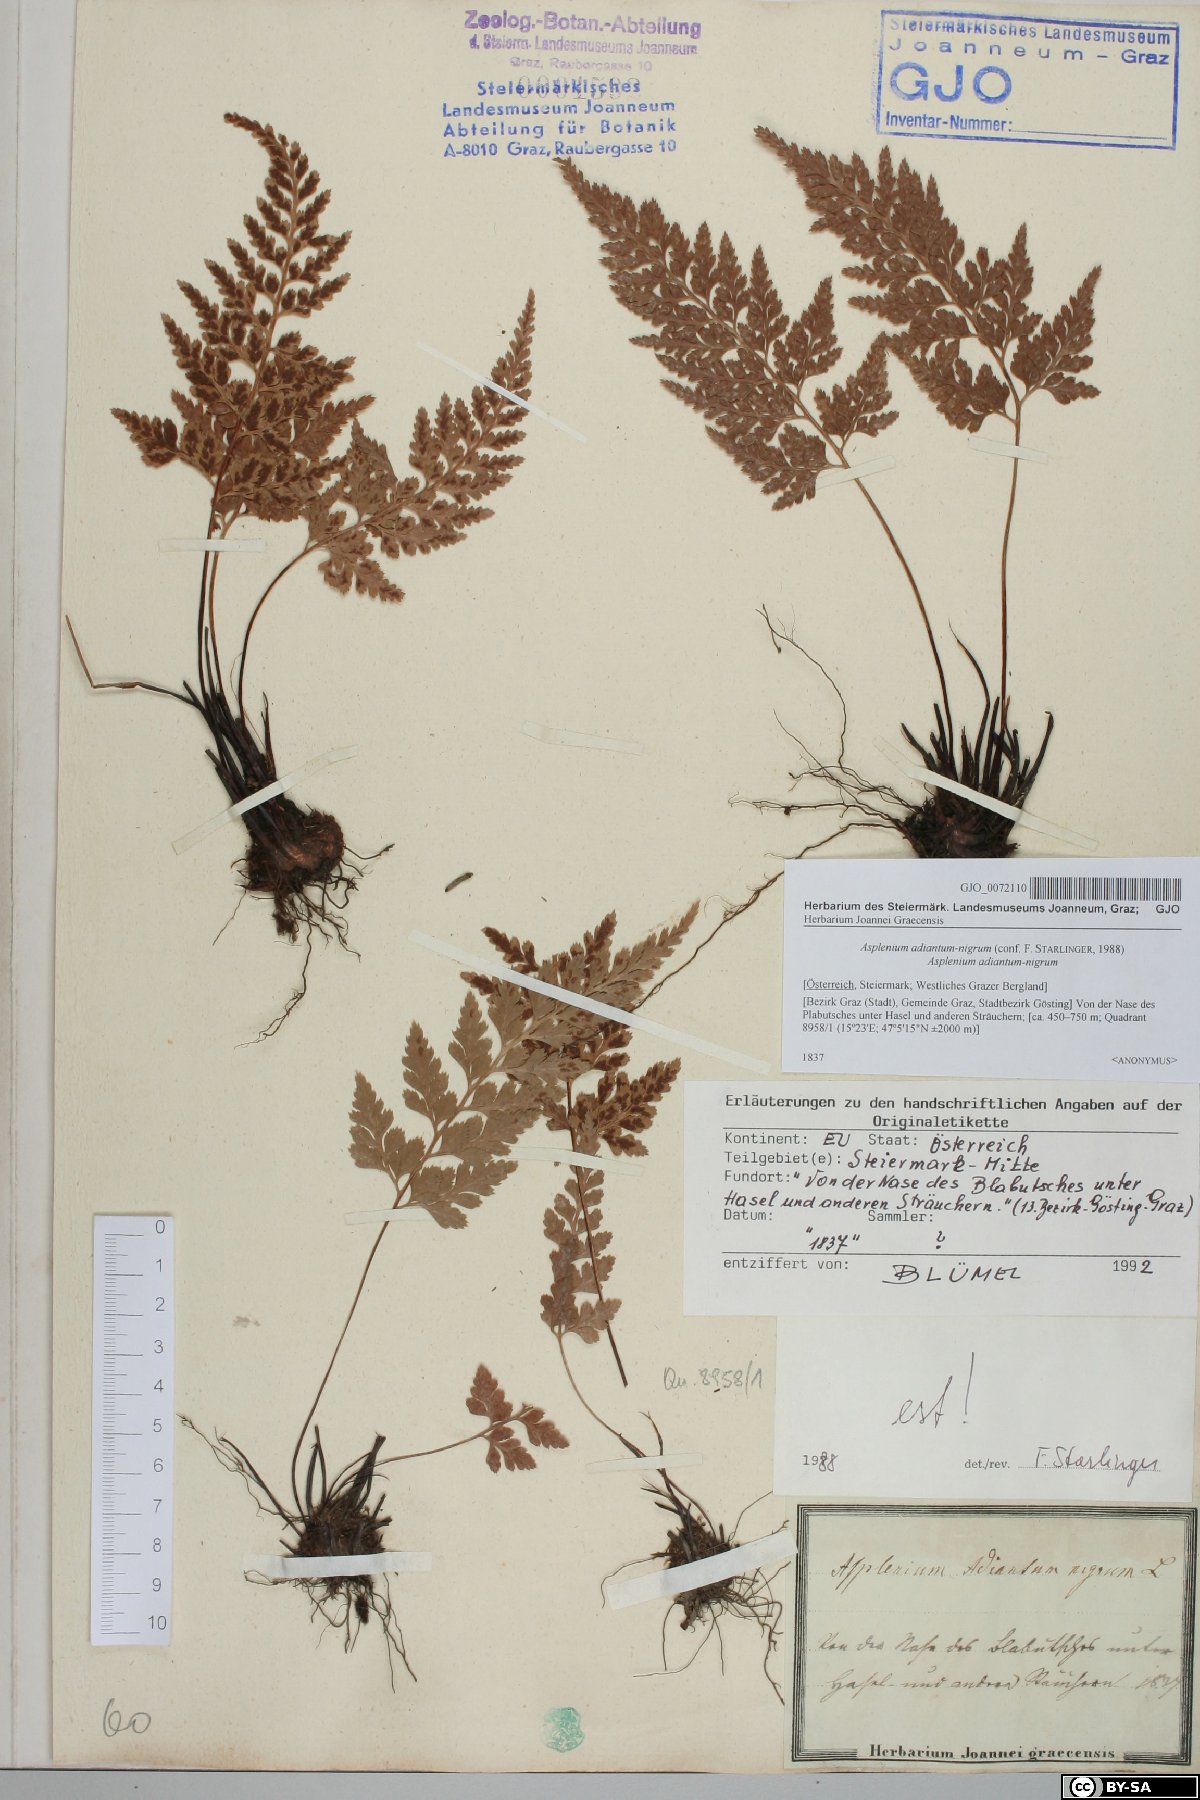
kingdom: Plantae
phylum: Tracheophyta
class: Polypodiopsida
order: Polypodiales
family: Aspleniaceae
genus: Asplenium
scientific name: Asplenium adiantum-nigrum
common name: Black spleenwort
